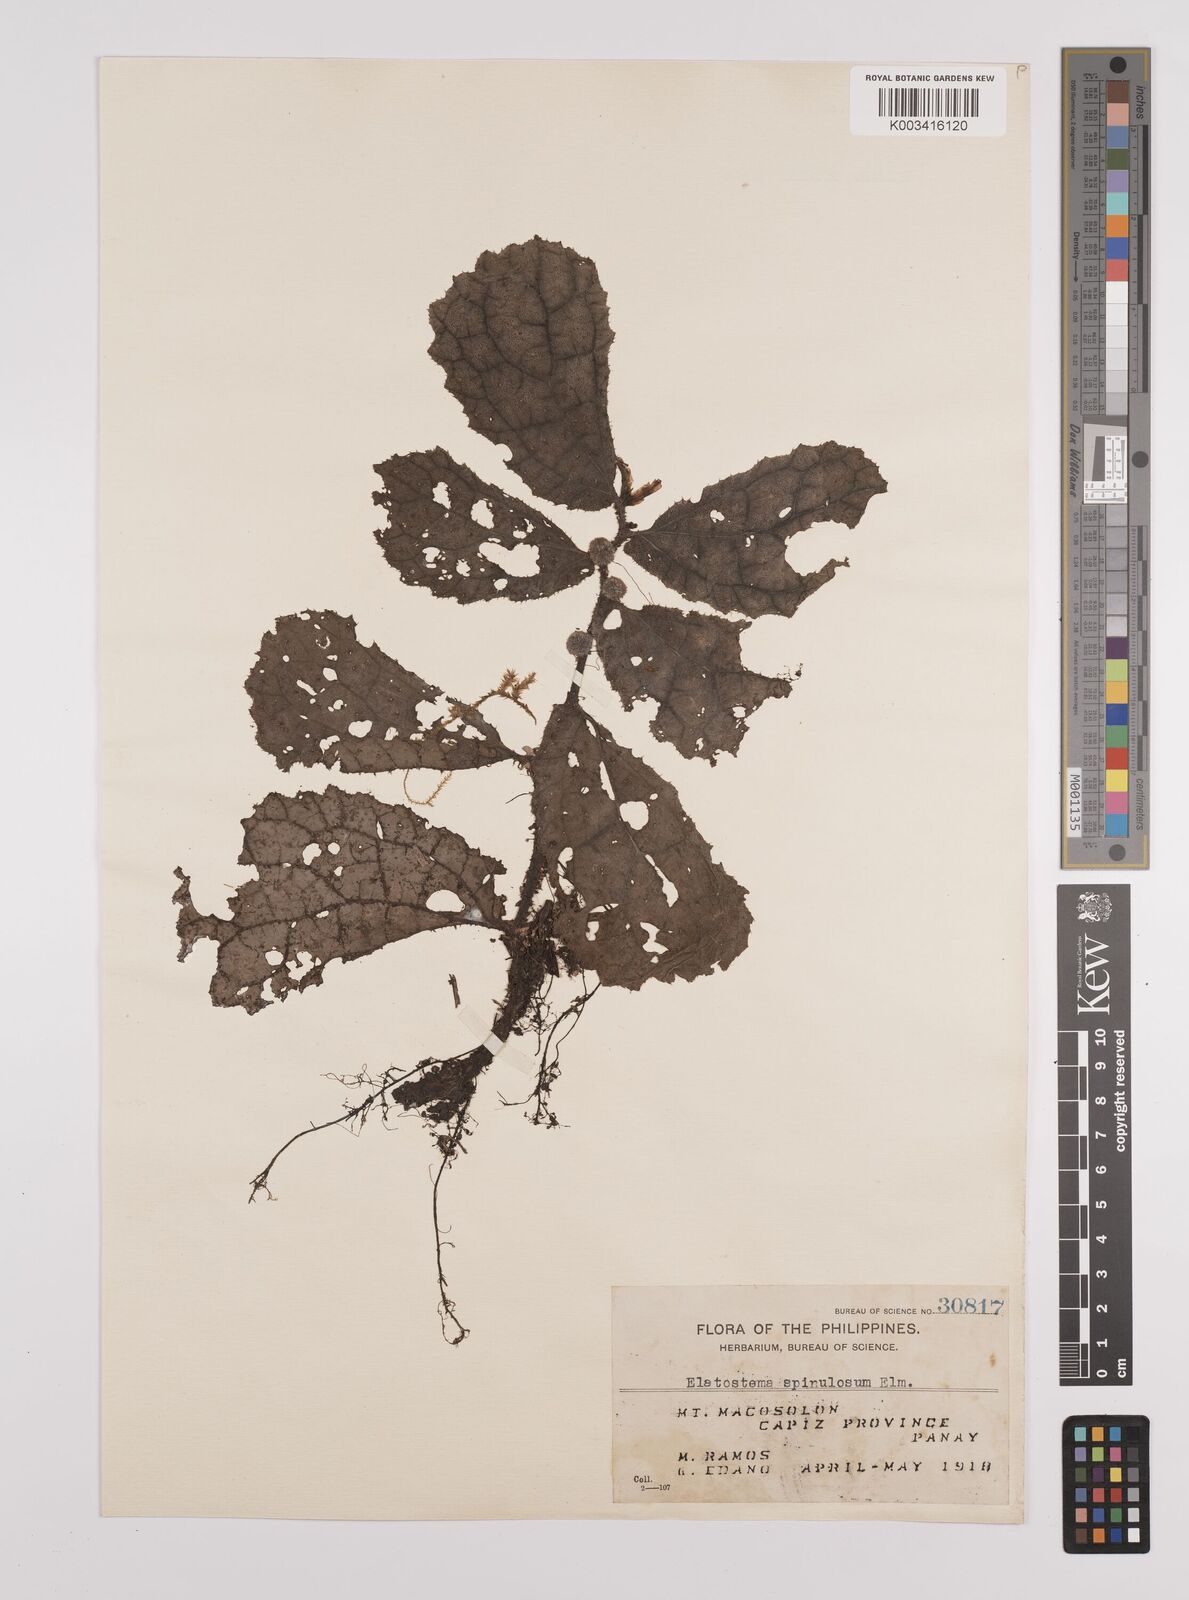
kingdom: Plantae
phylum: Tracheophyta
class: Magnoliopsida
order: Rosales
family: Urticaceae
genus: Elatostema
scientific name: Elatostema spinulosum
